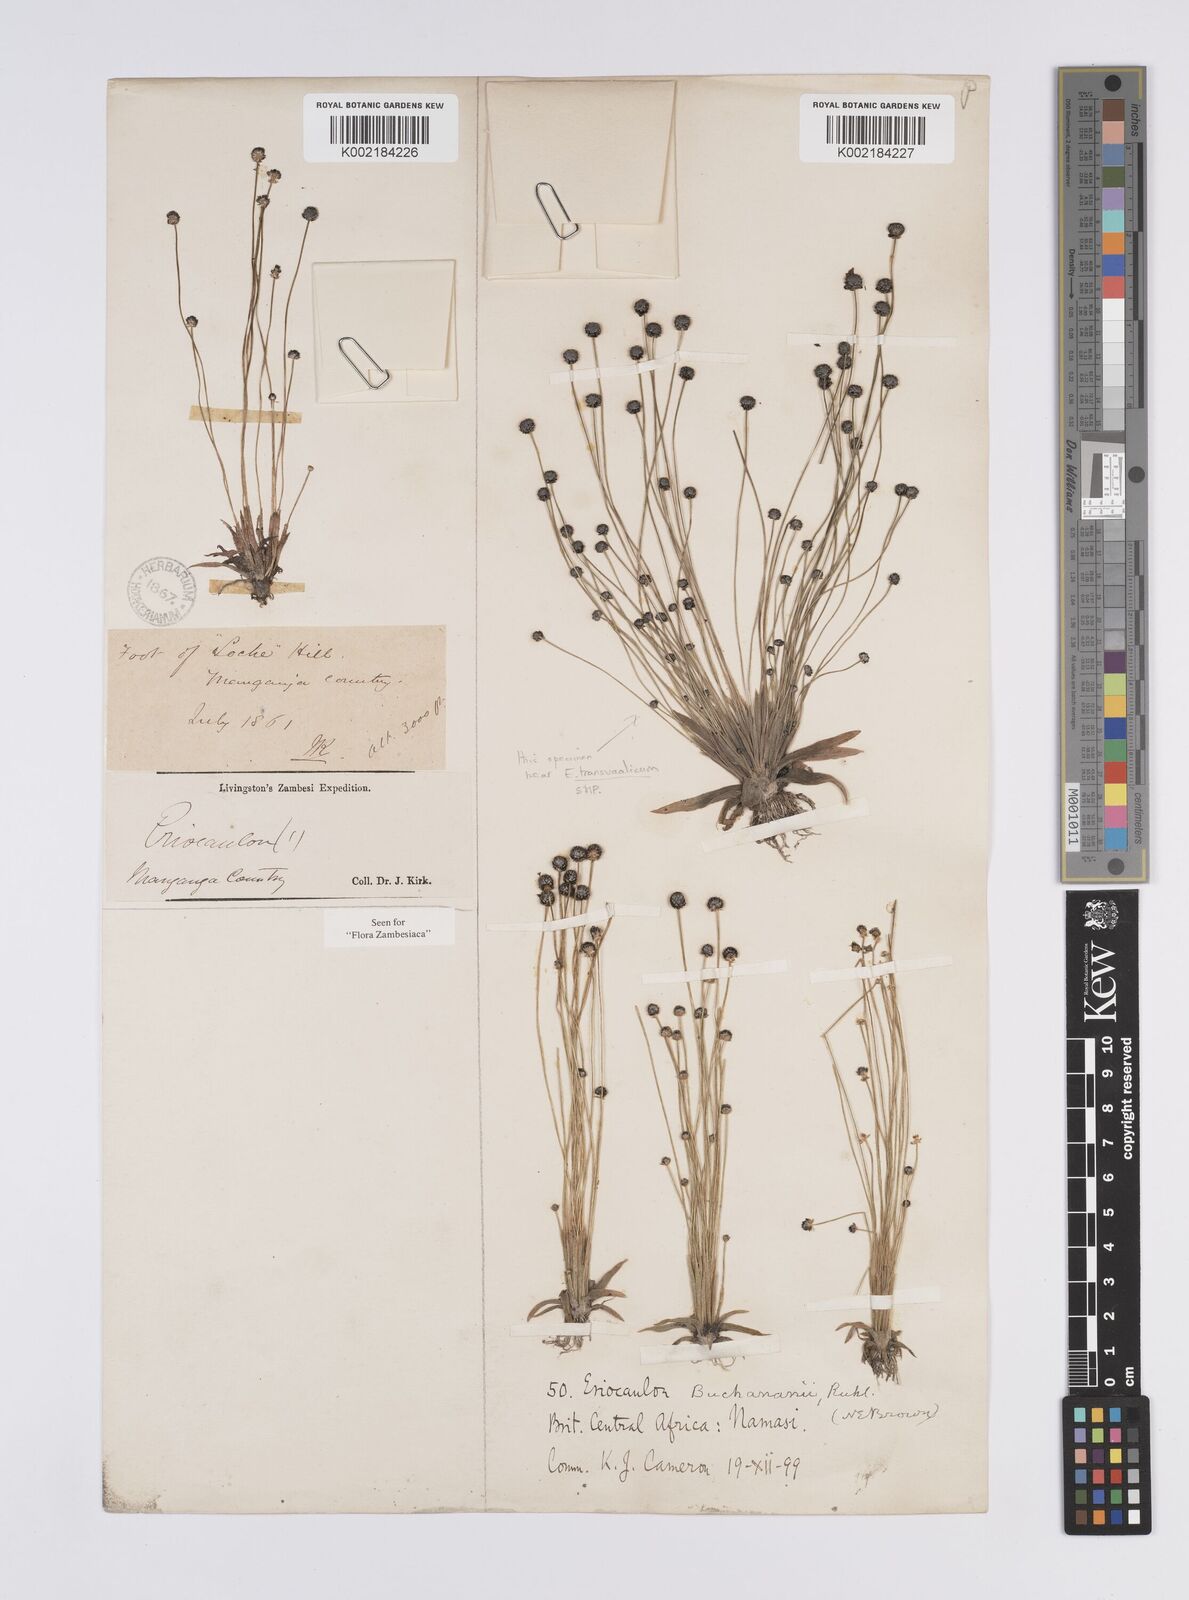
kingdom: Plantae
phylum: Tracheophyta
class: Liliopsida
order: Poales
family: Eriocaulaceae
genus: Eriocaulon
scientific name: Eriocaulon buchananii
